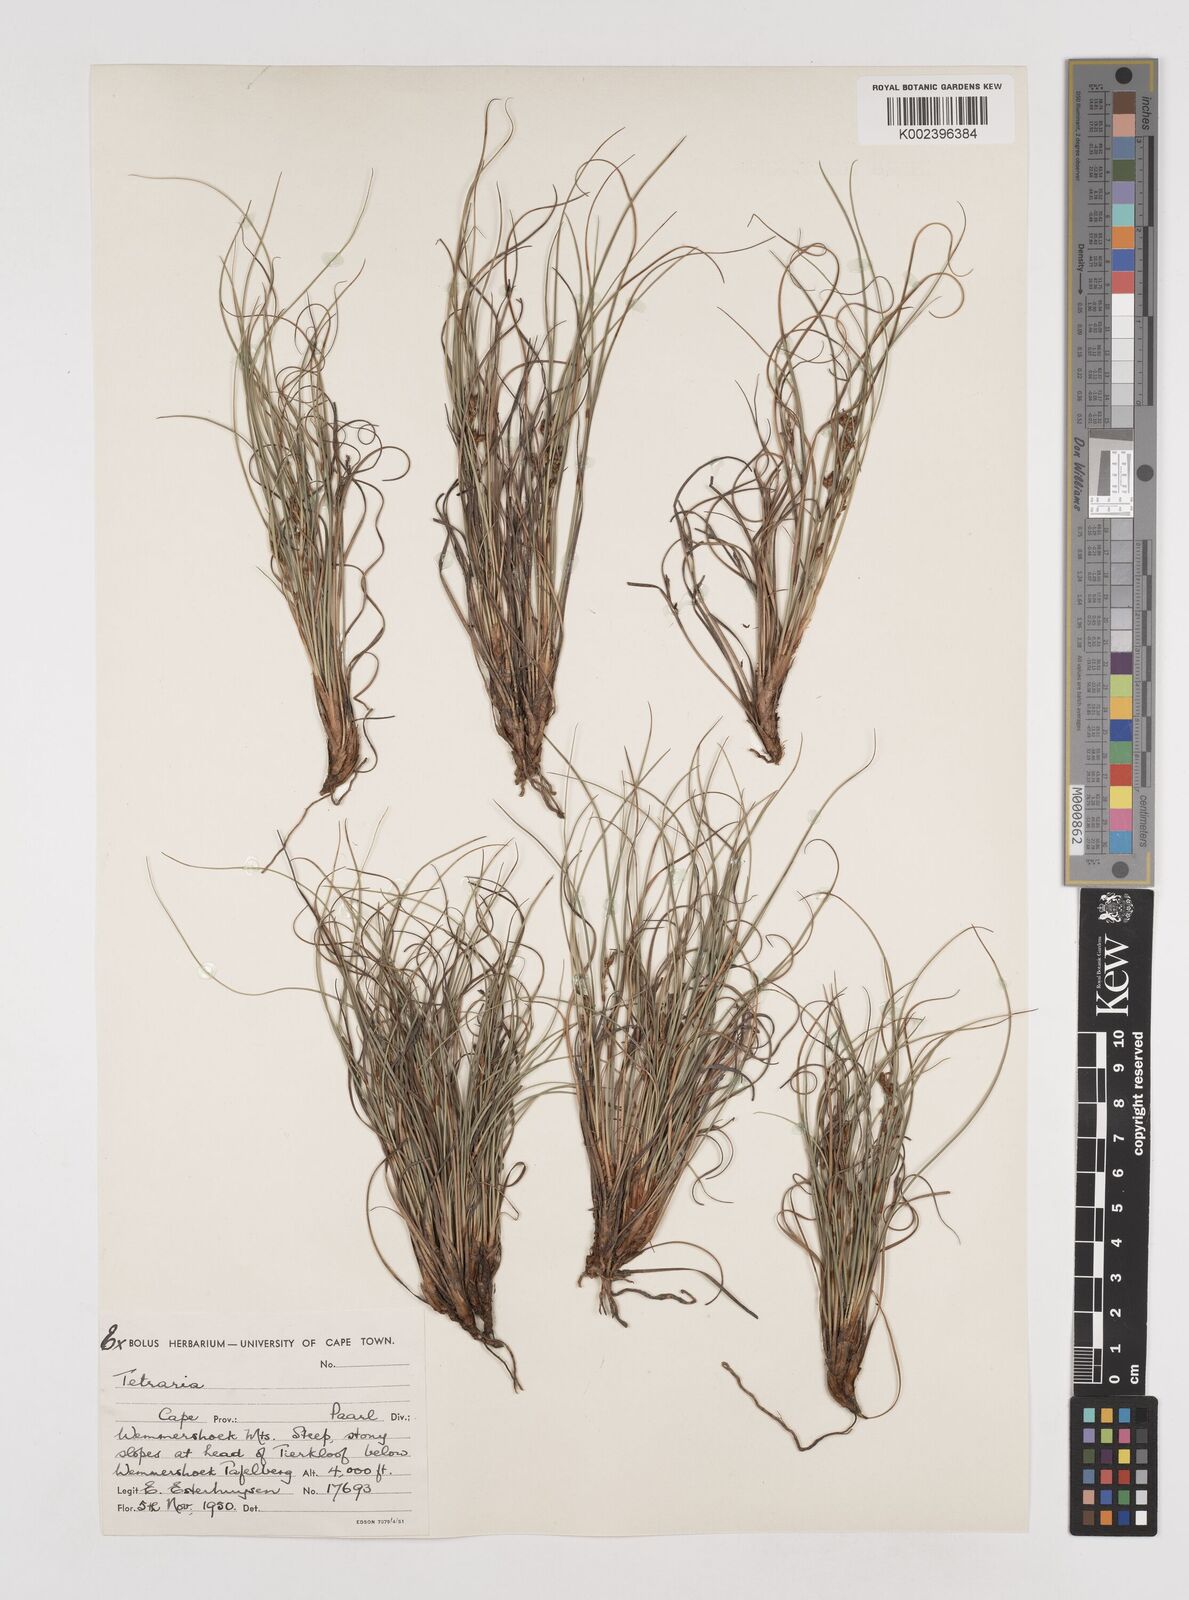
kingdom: Plantae
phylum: Tracheophyta
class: Liliopsida
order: Poales
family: Cyperaceae
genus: Tetraria
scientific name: Tetraria
